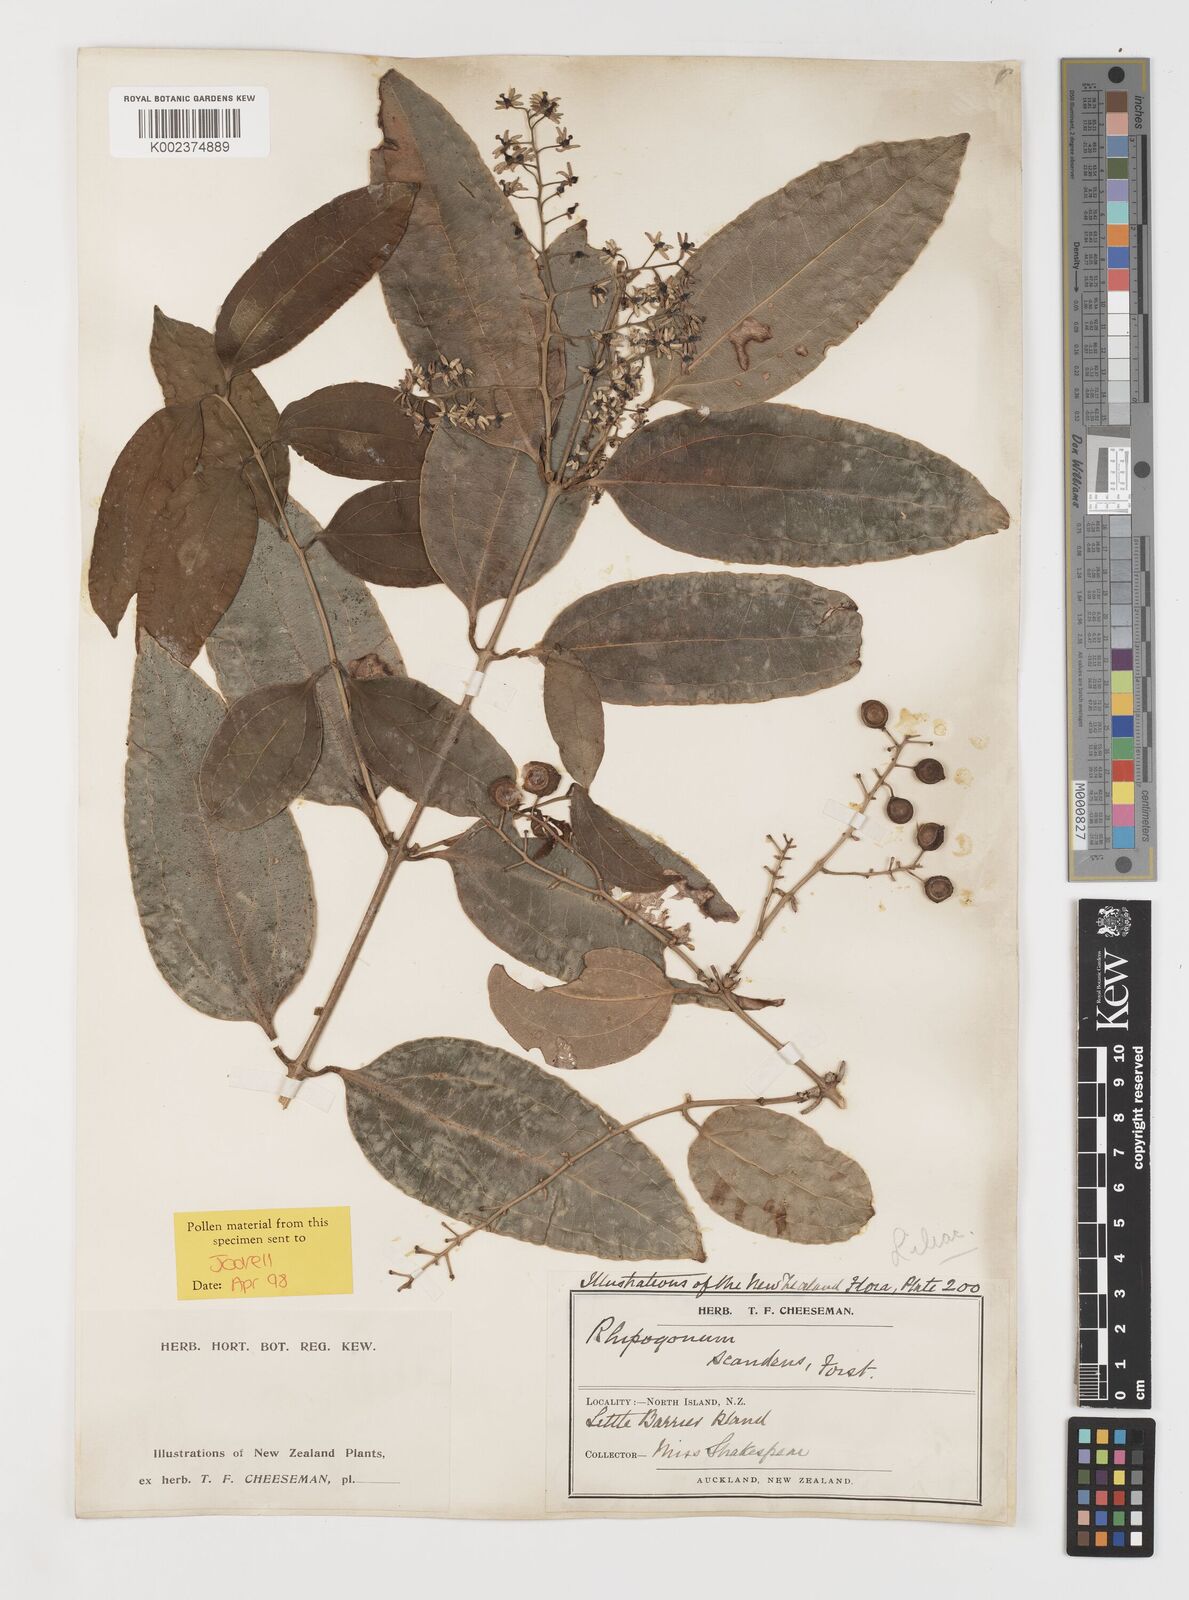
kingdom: Plantae
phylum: Tracheophyta
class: Liliopsida
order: Liliales
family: Ripogonaceae
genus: Ripogonum
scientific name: Ripogonum scandens
